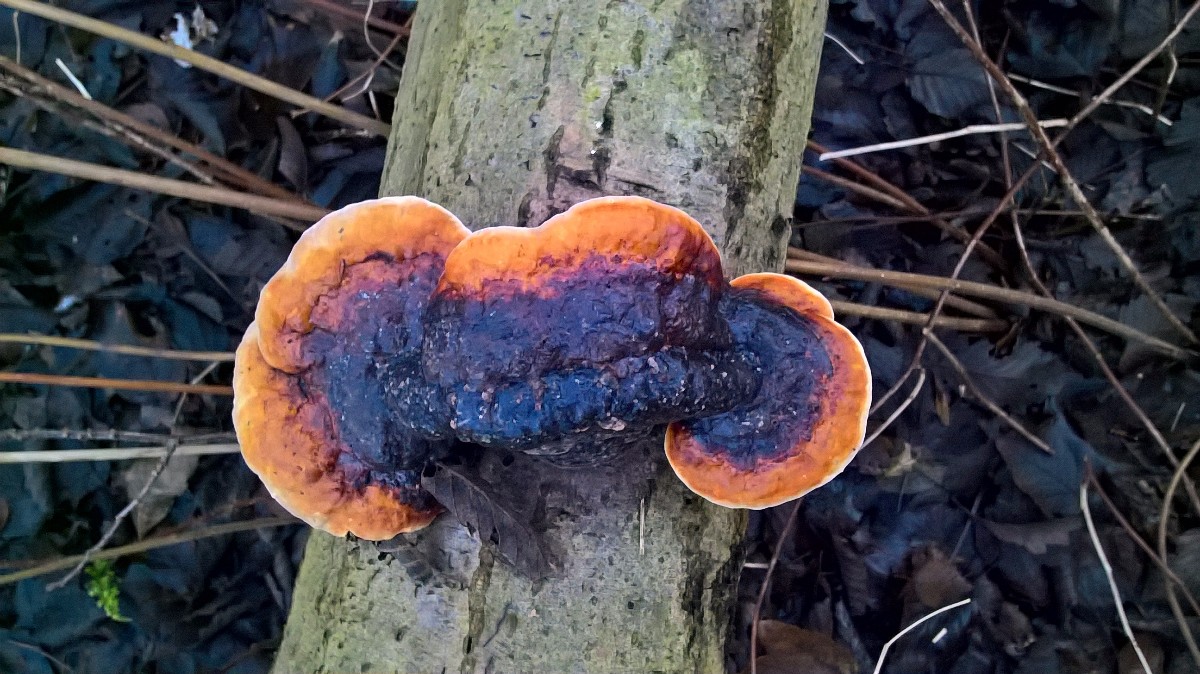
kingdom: Fungi
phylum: Basidiomycota
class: Agaricomycetes
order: Polyporales
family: Fomitopsidaceae
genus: Fomitopsis
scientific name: Fomitopsis pinicola
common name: randbæltet hovporesvamp
